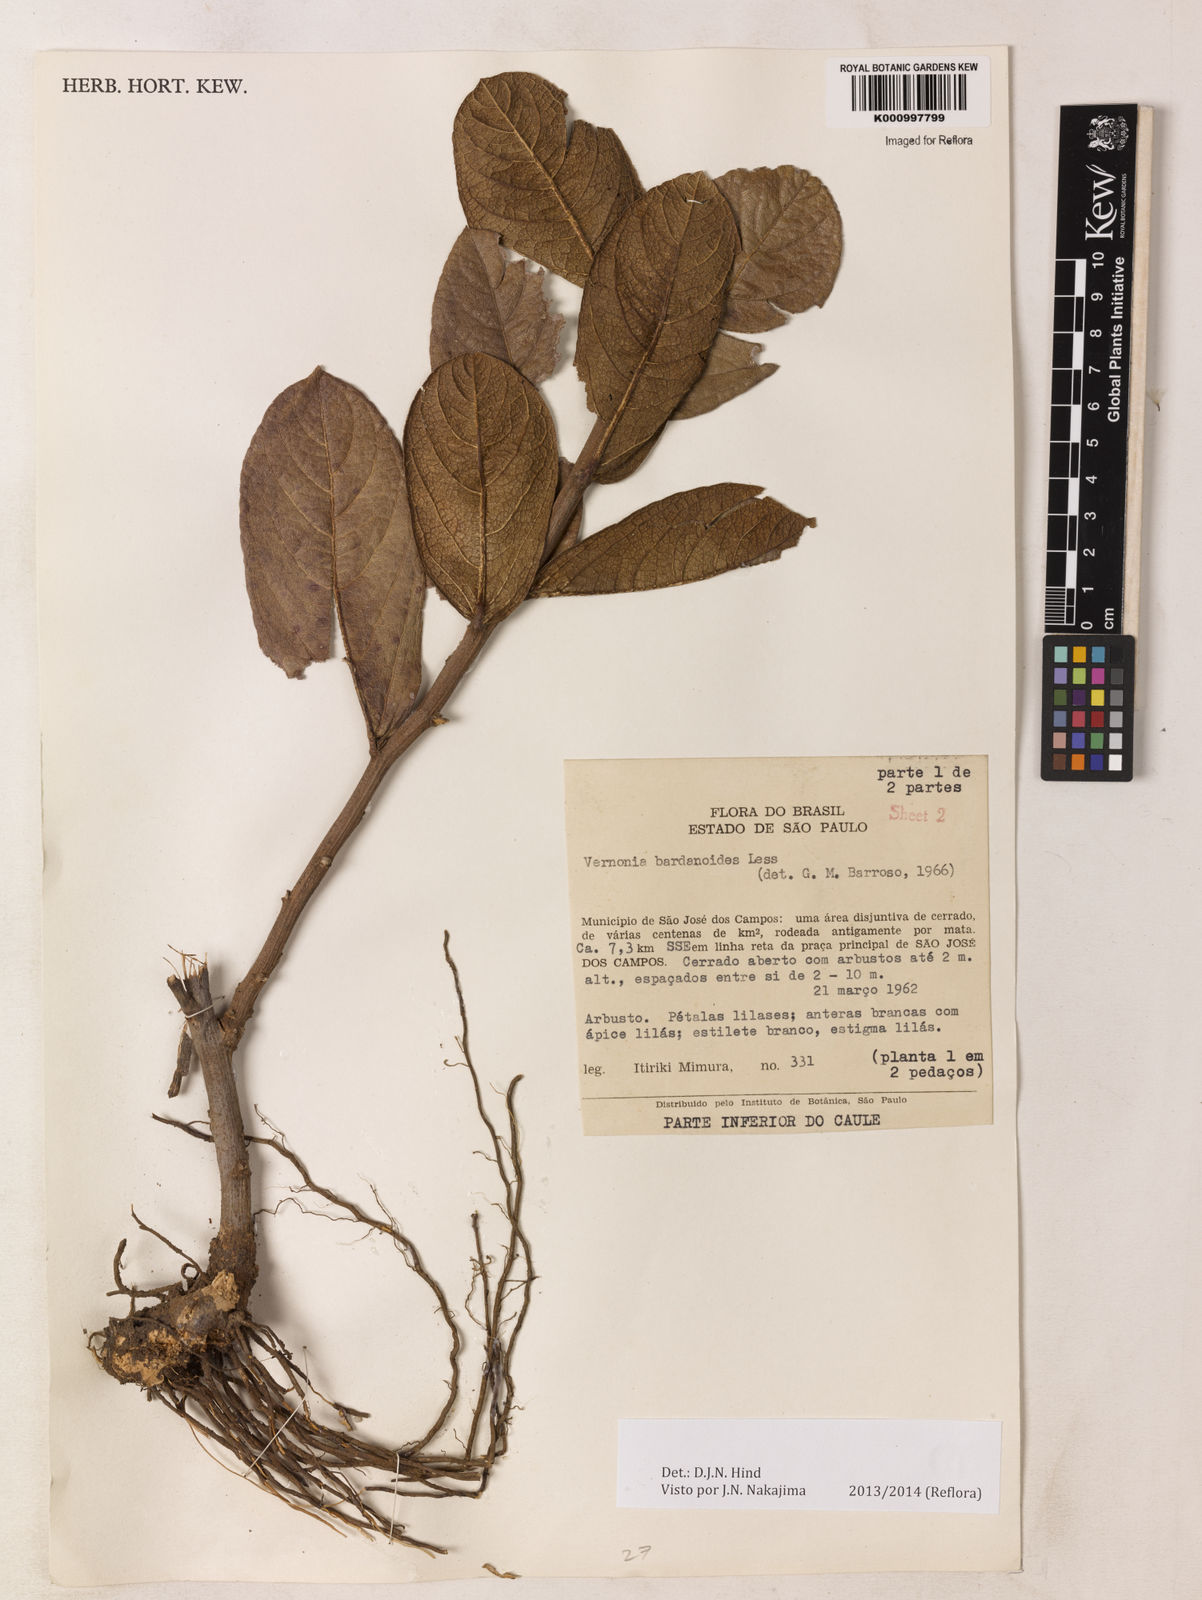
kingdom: Plantae
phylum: Tracheophyta
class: Magnoliopsida
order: Asterales
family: Asteraceae
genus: Lessingianthus
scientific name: Lessingianthus bardanioides
